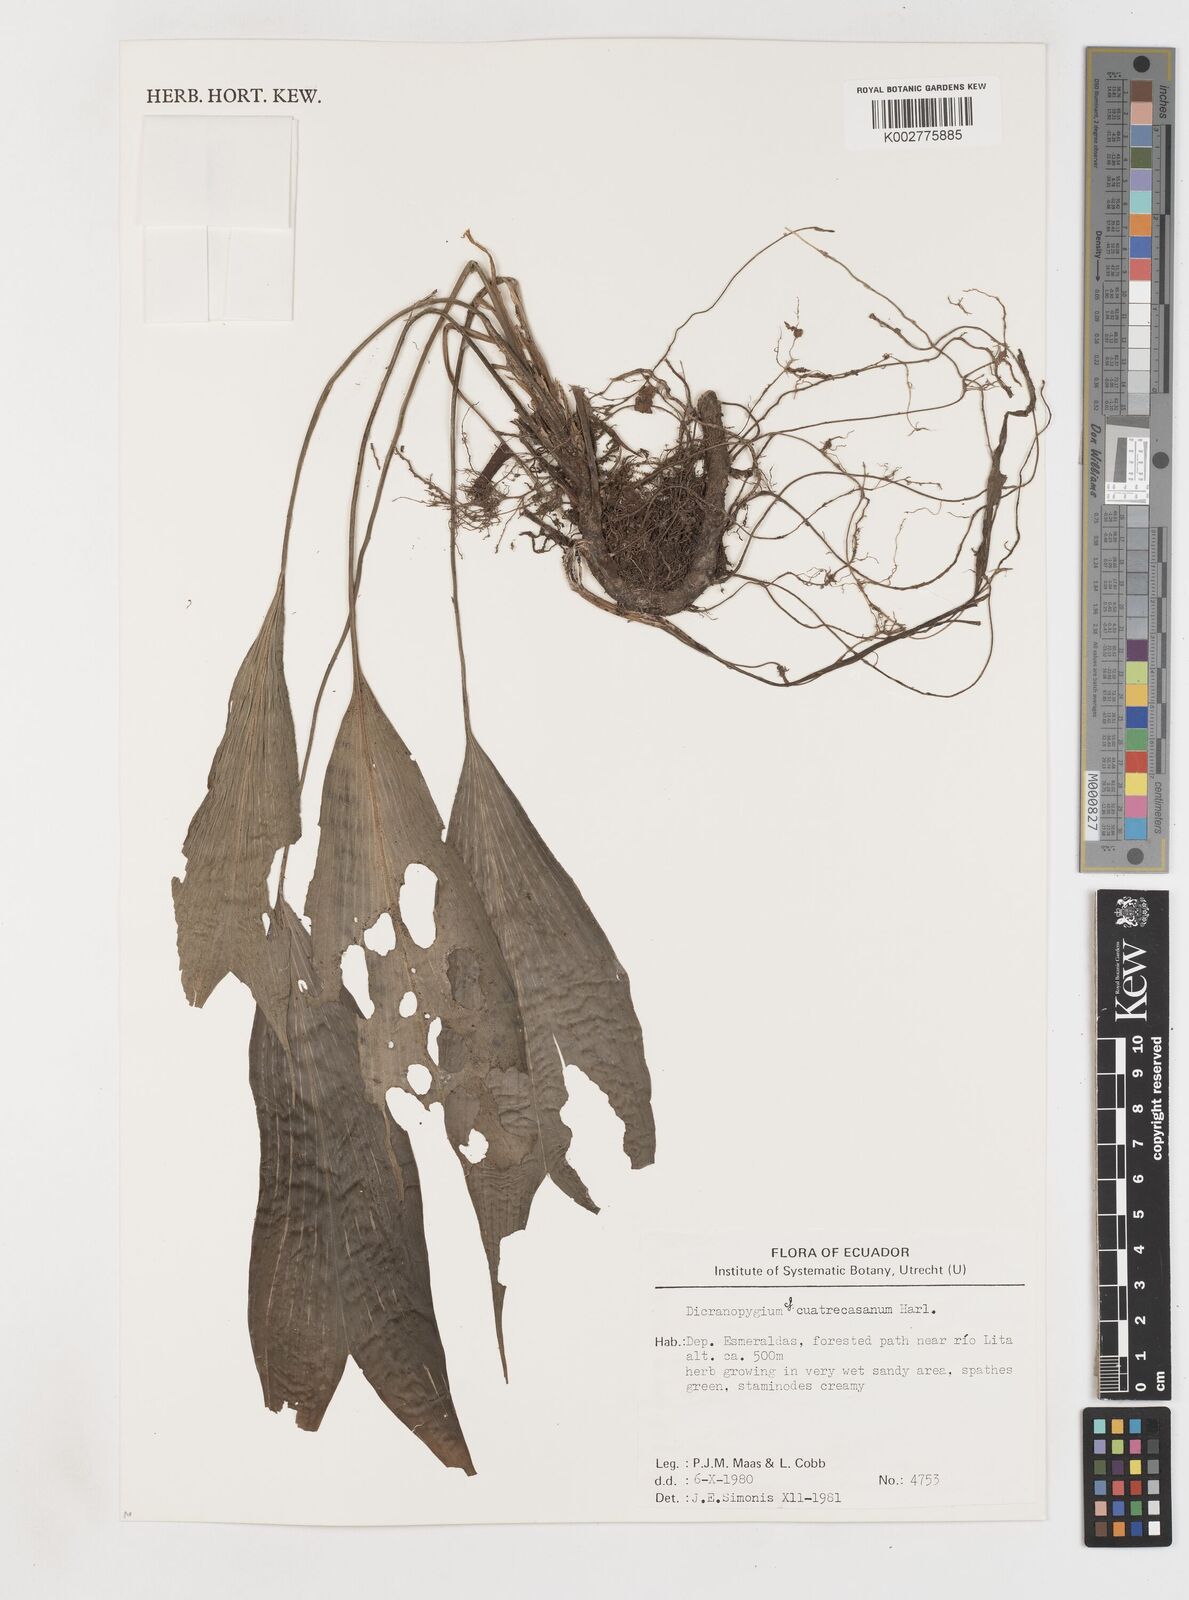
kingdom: Plantae
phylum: Tracheophyta
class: Liliopsida
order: Pandanales
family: Cyclanthaceae
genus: Dicranopygium
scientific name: Dicranopygium cuatrecasanum
